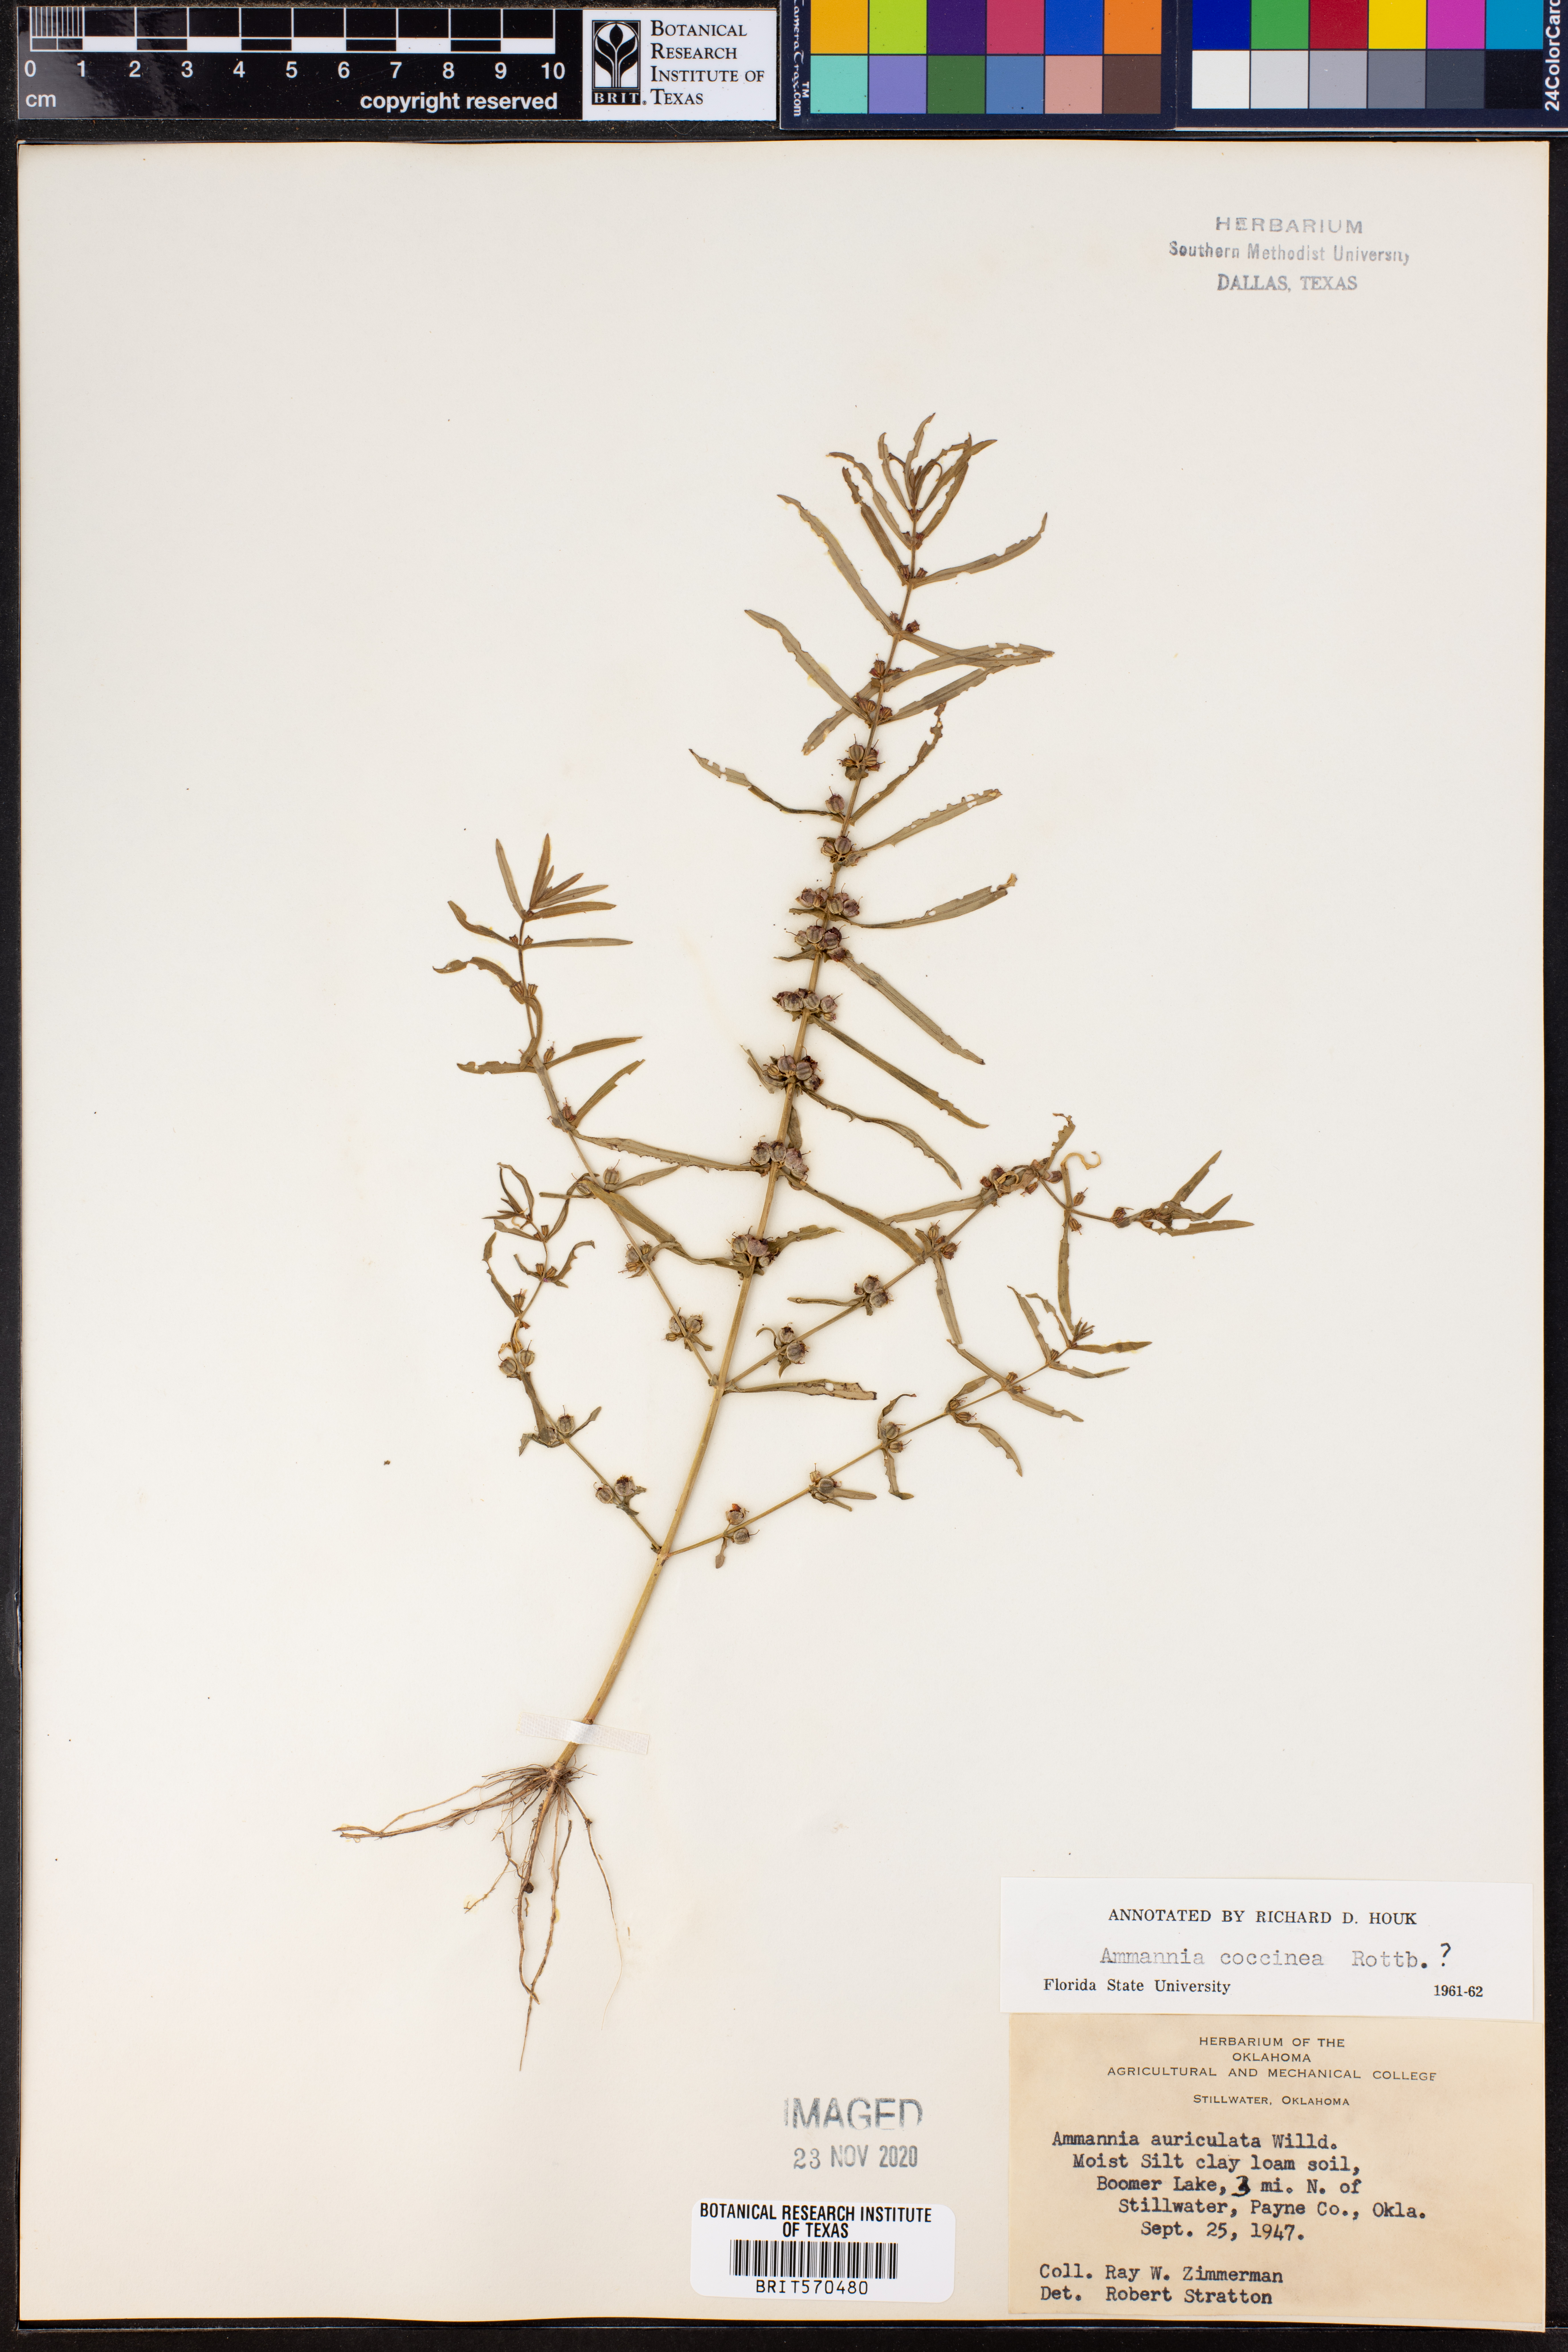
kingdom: Plantae
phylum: Tracheophyta
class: Magnoliopsida
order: Myrtales
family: Lythraceae
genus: Ammannia
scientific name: Ammannia coccinea
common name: Valley redstem
